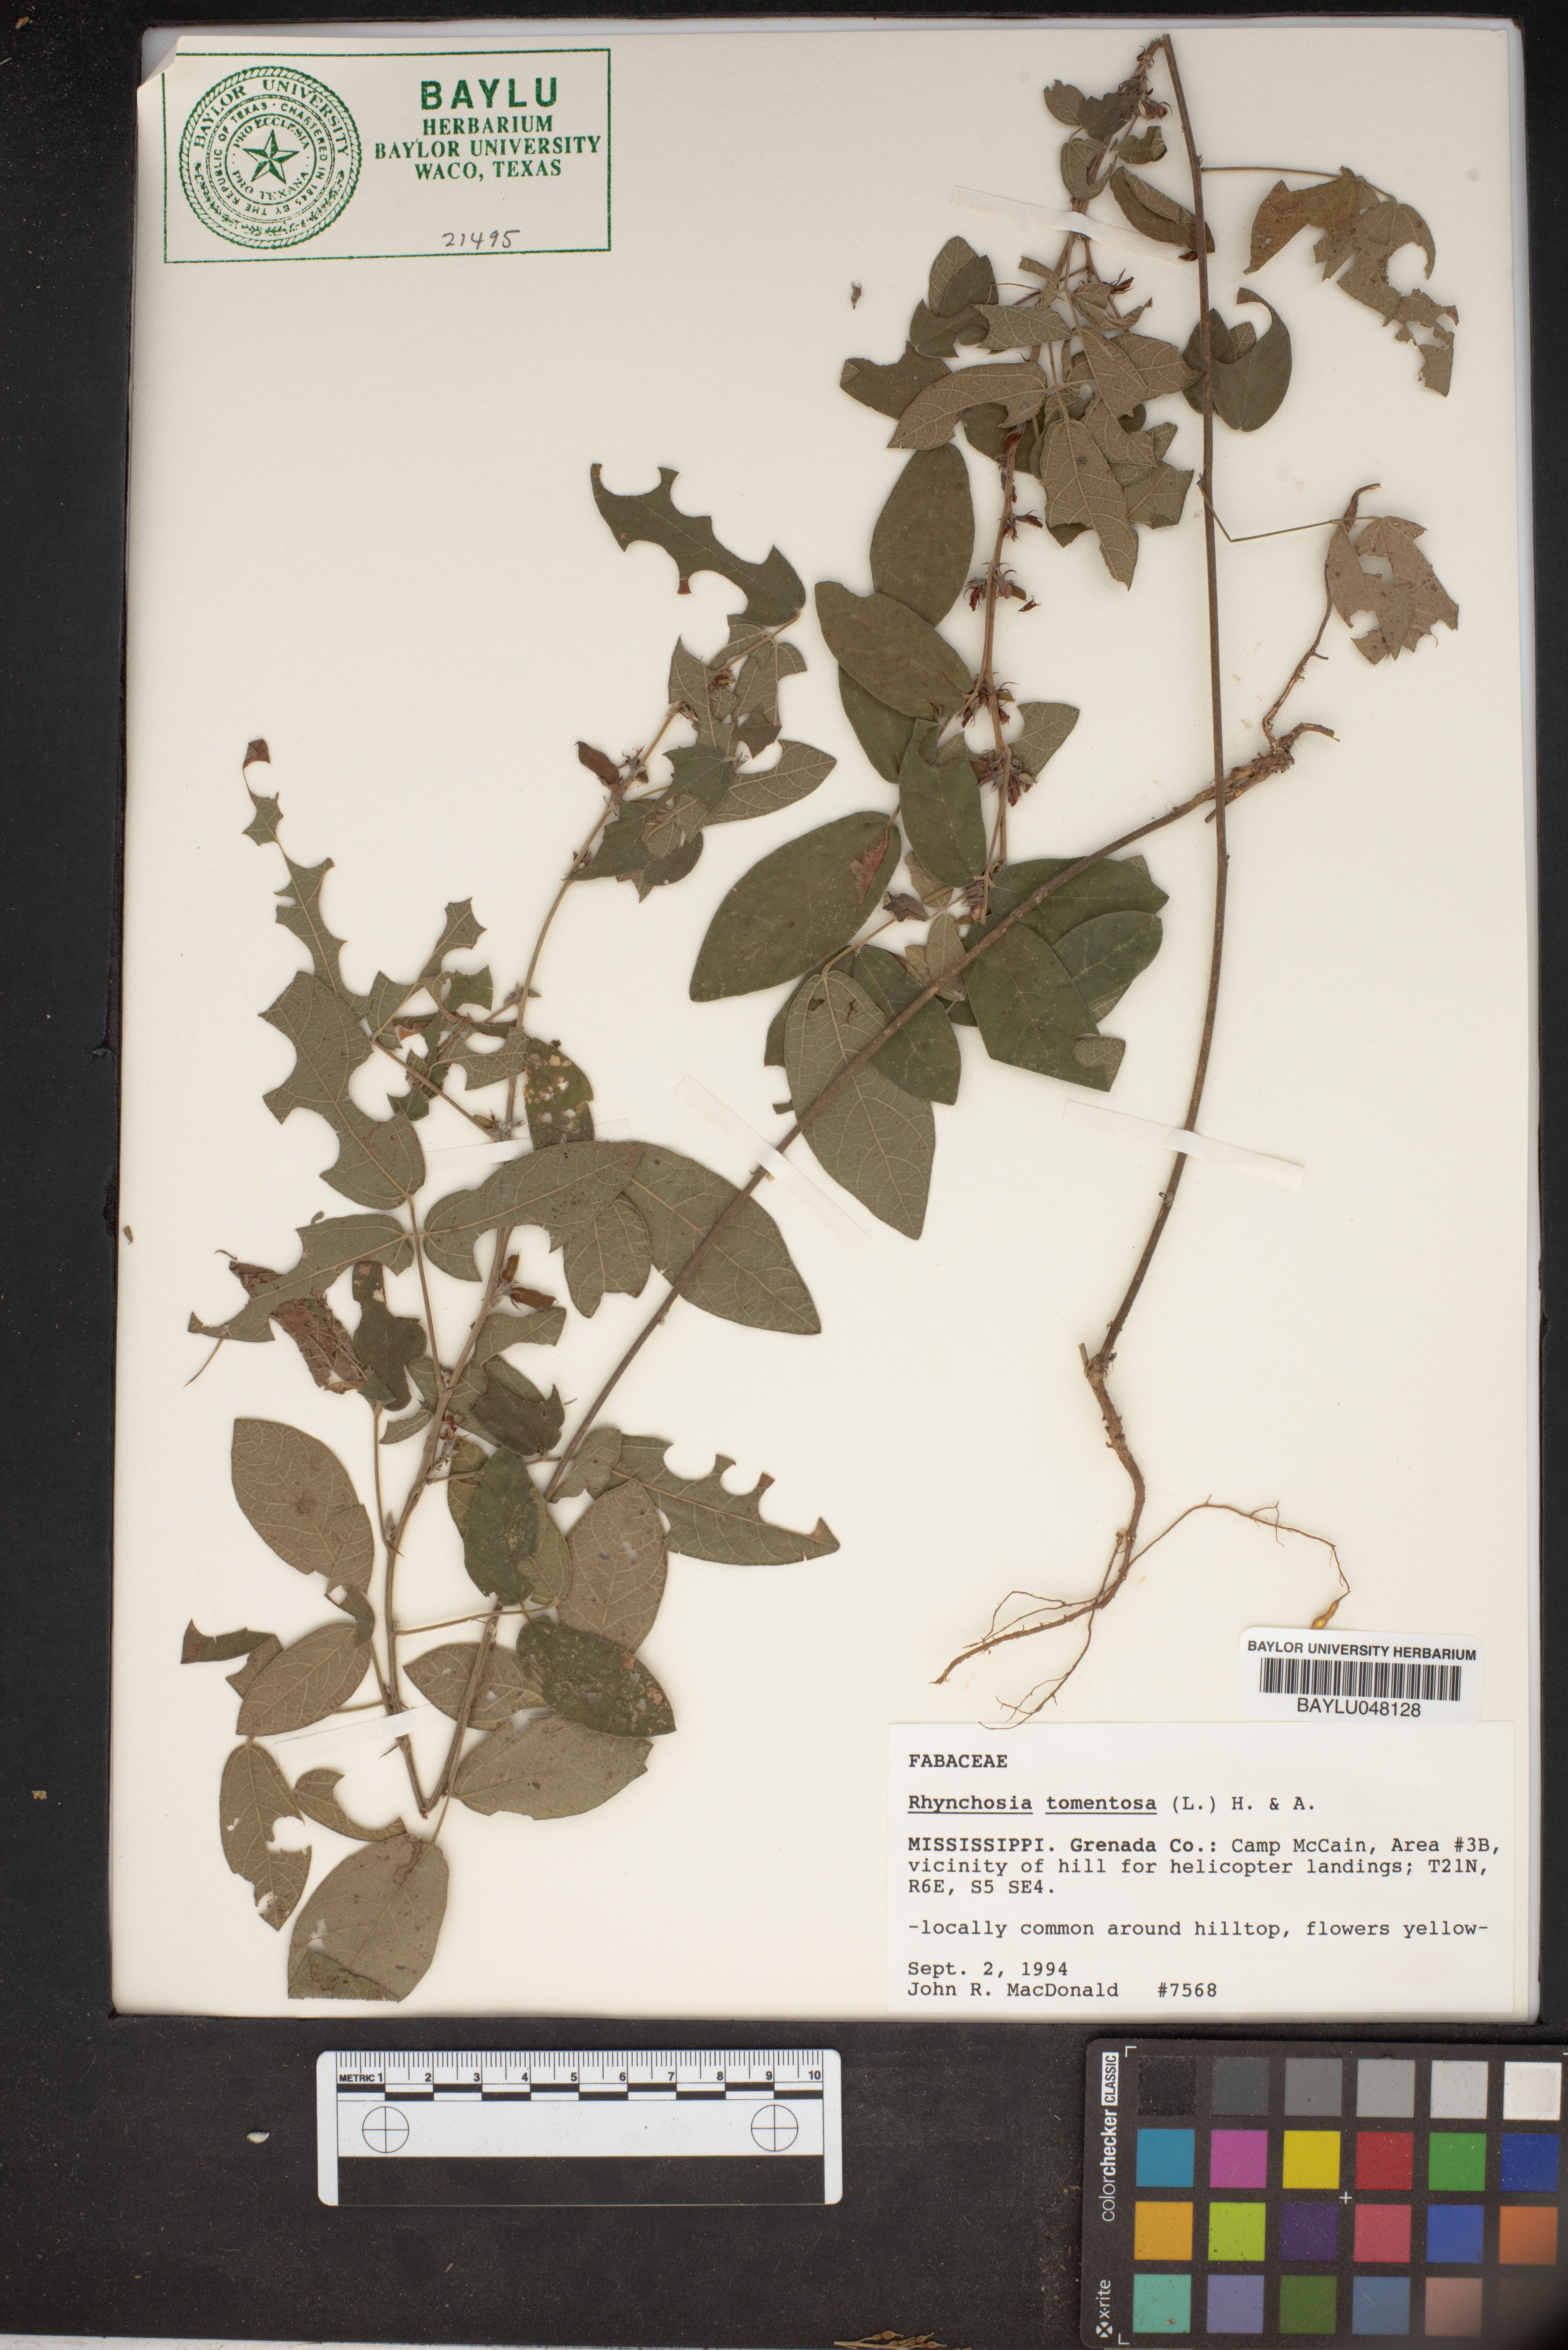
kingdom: Plantae
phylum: Tracheophyta
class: Magnoliopsida
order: Fabales
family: Fabaceae
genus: Rhynchosia
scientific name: Rhynchosia rothii
